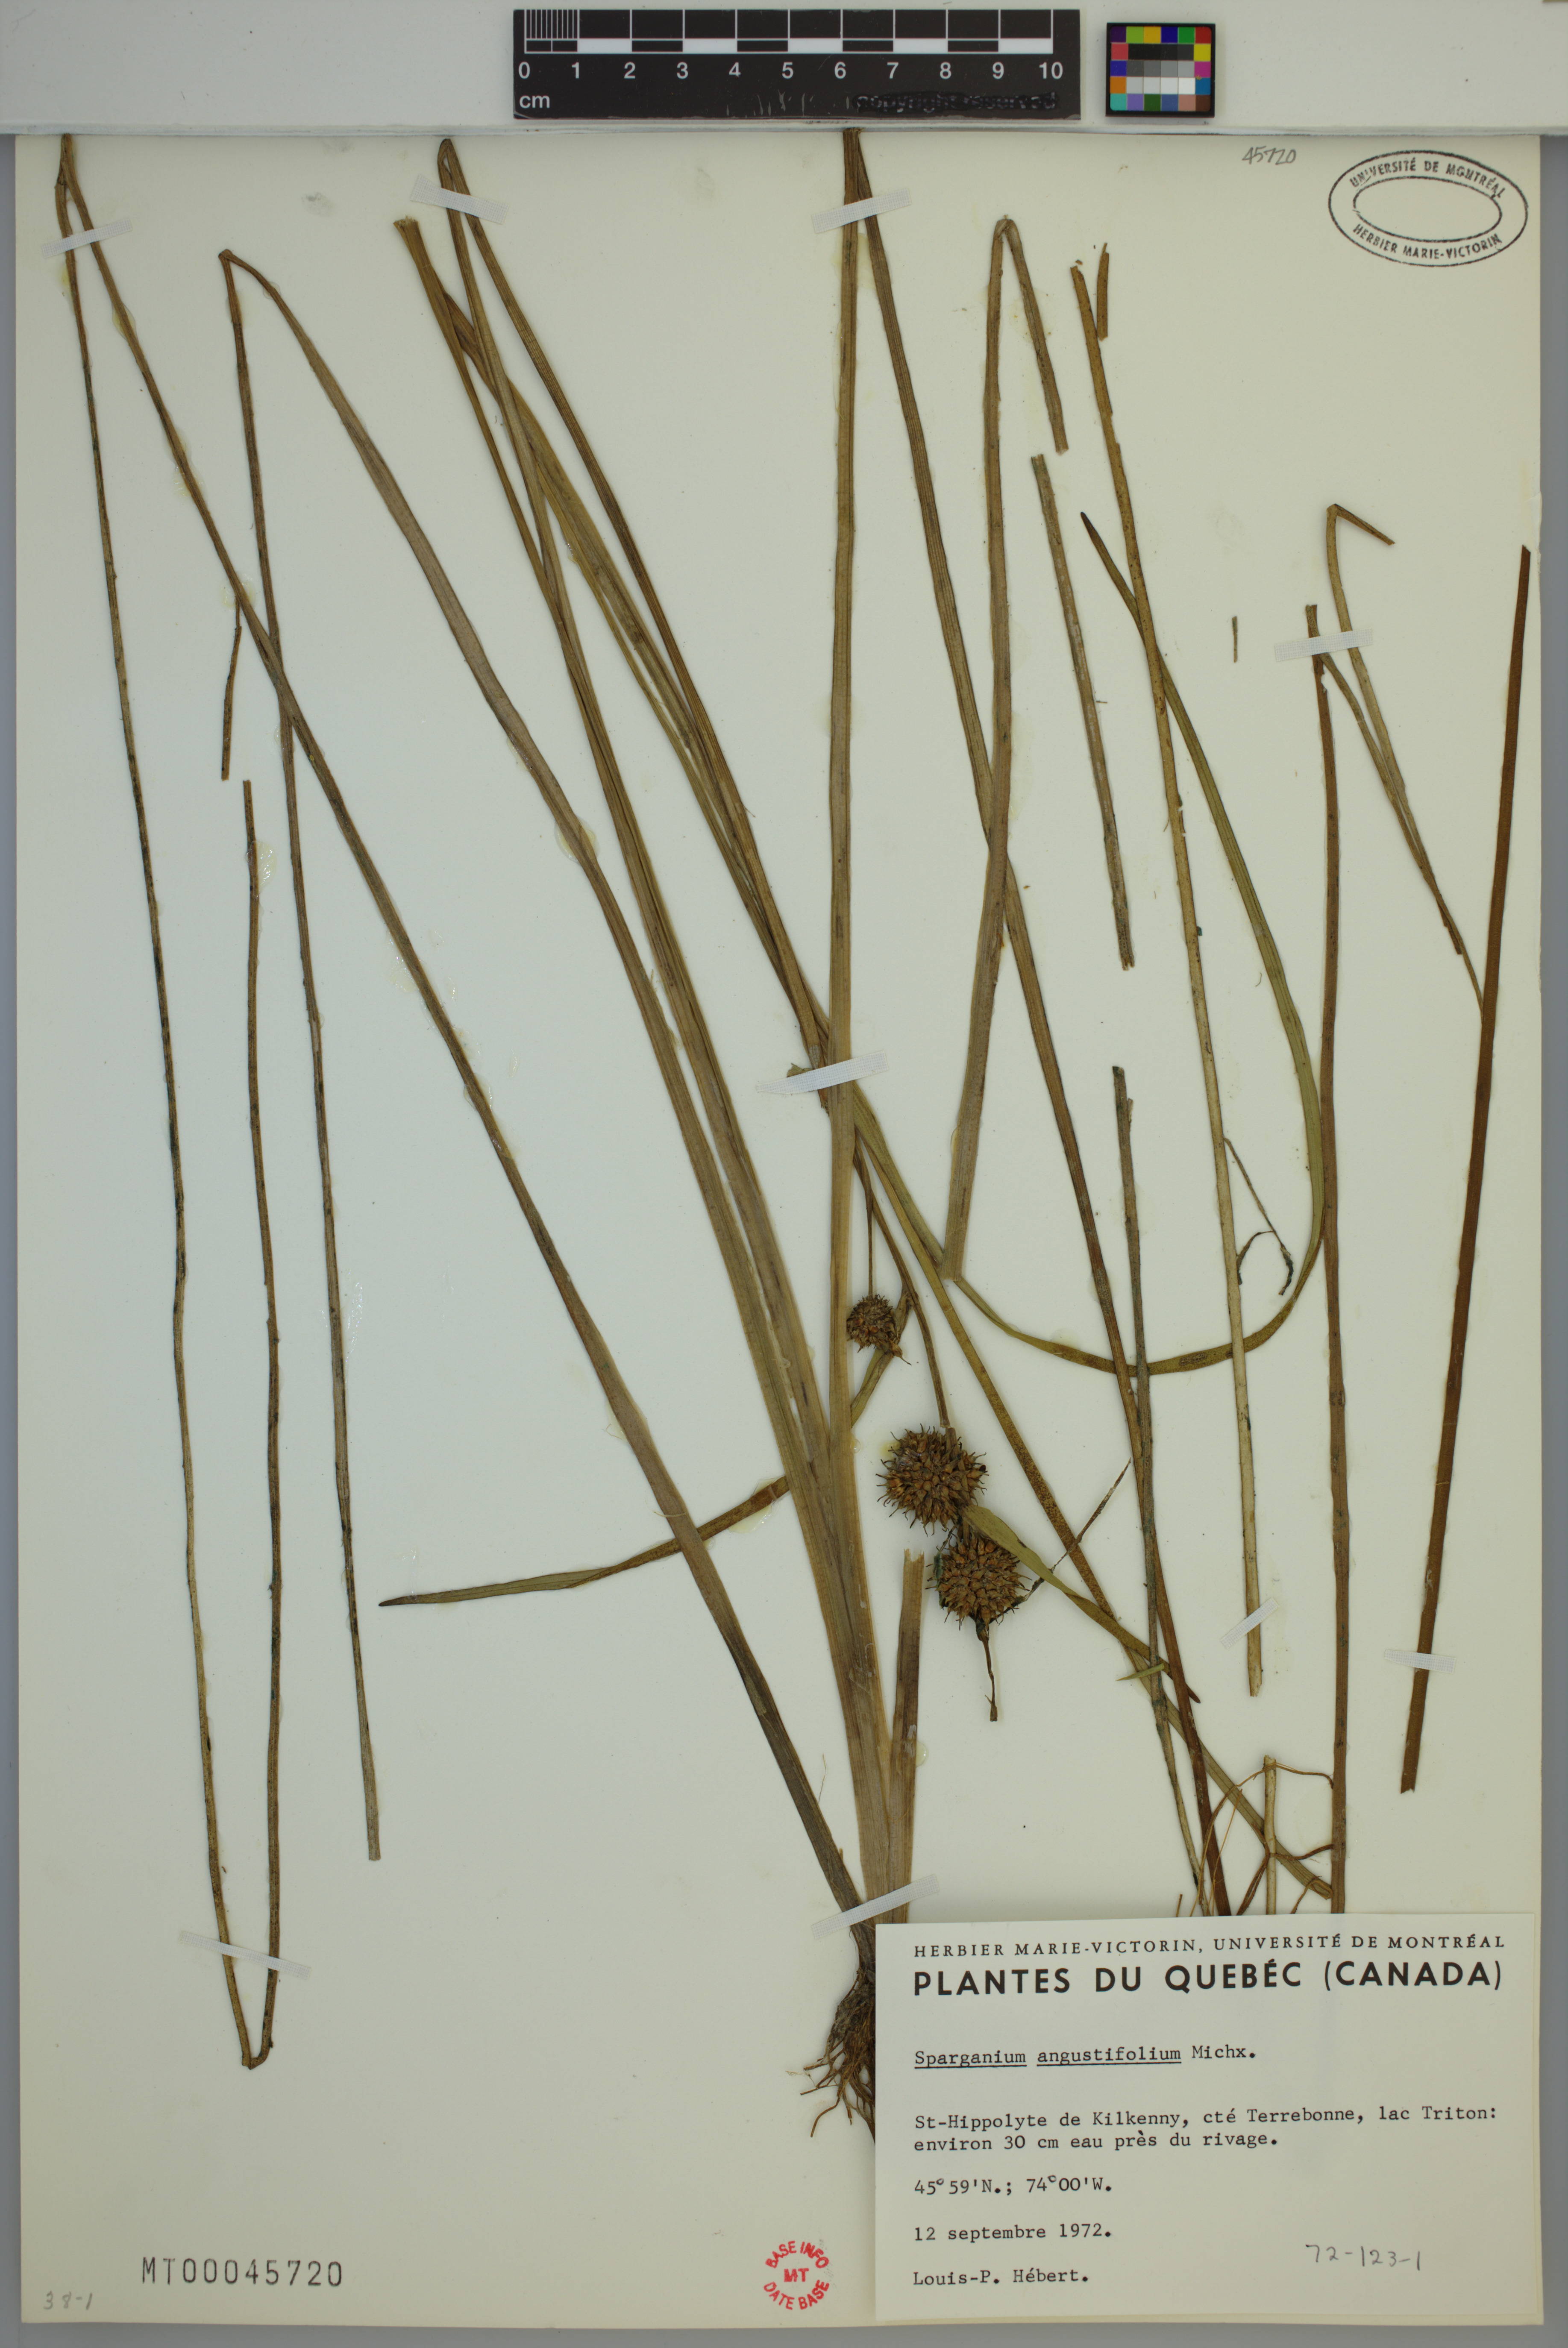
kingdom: Plantae
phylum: Tracheophyta
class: Liliopsida
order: Poales
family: Typhaceae
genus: Sparganium
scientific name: Sparganium angustifolium
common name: Floating bur-reed
